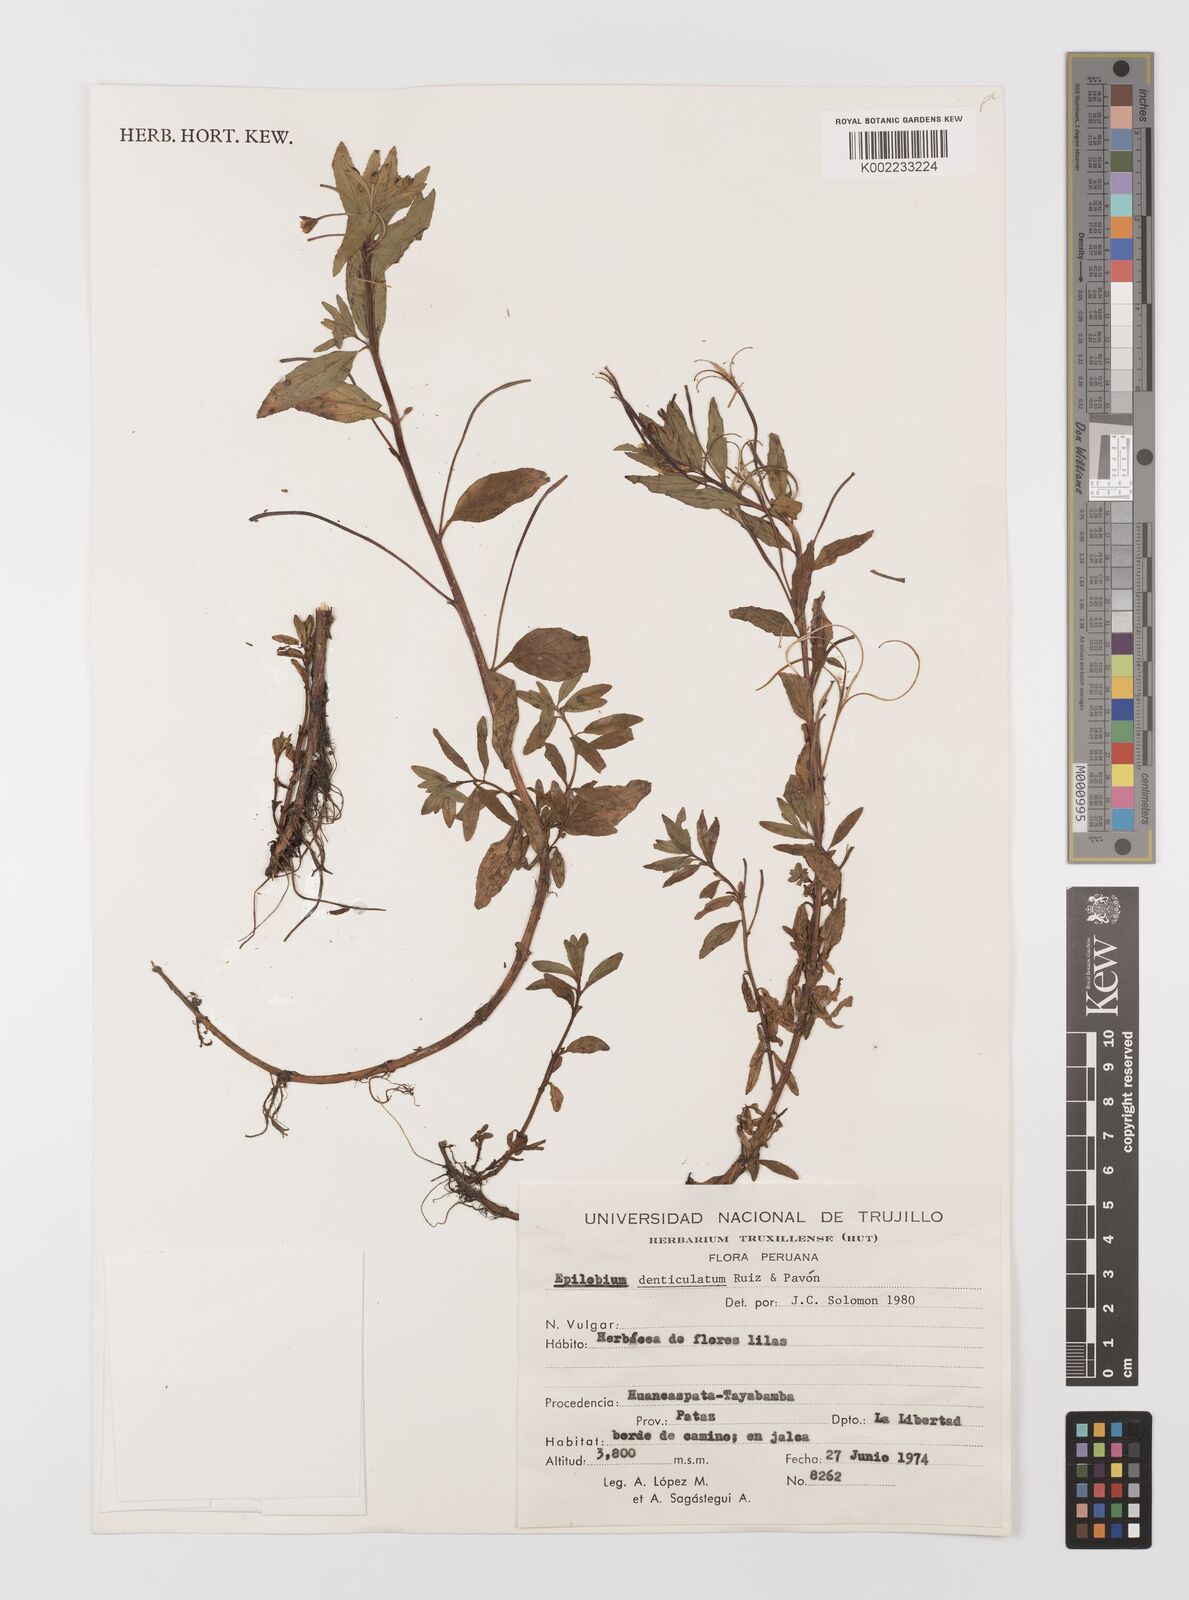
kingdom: Plantae
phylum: Tracheophyta
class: Magnoliopsida
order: Myrtales
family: Onagraceae
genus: Epilobium
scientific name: Epilobium denticulatum
